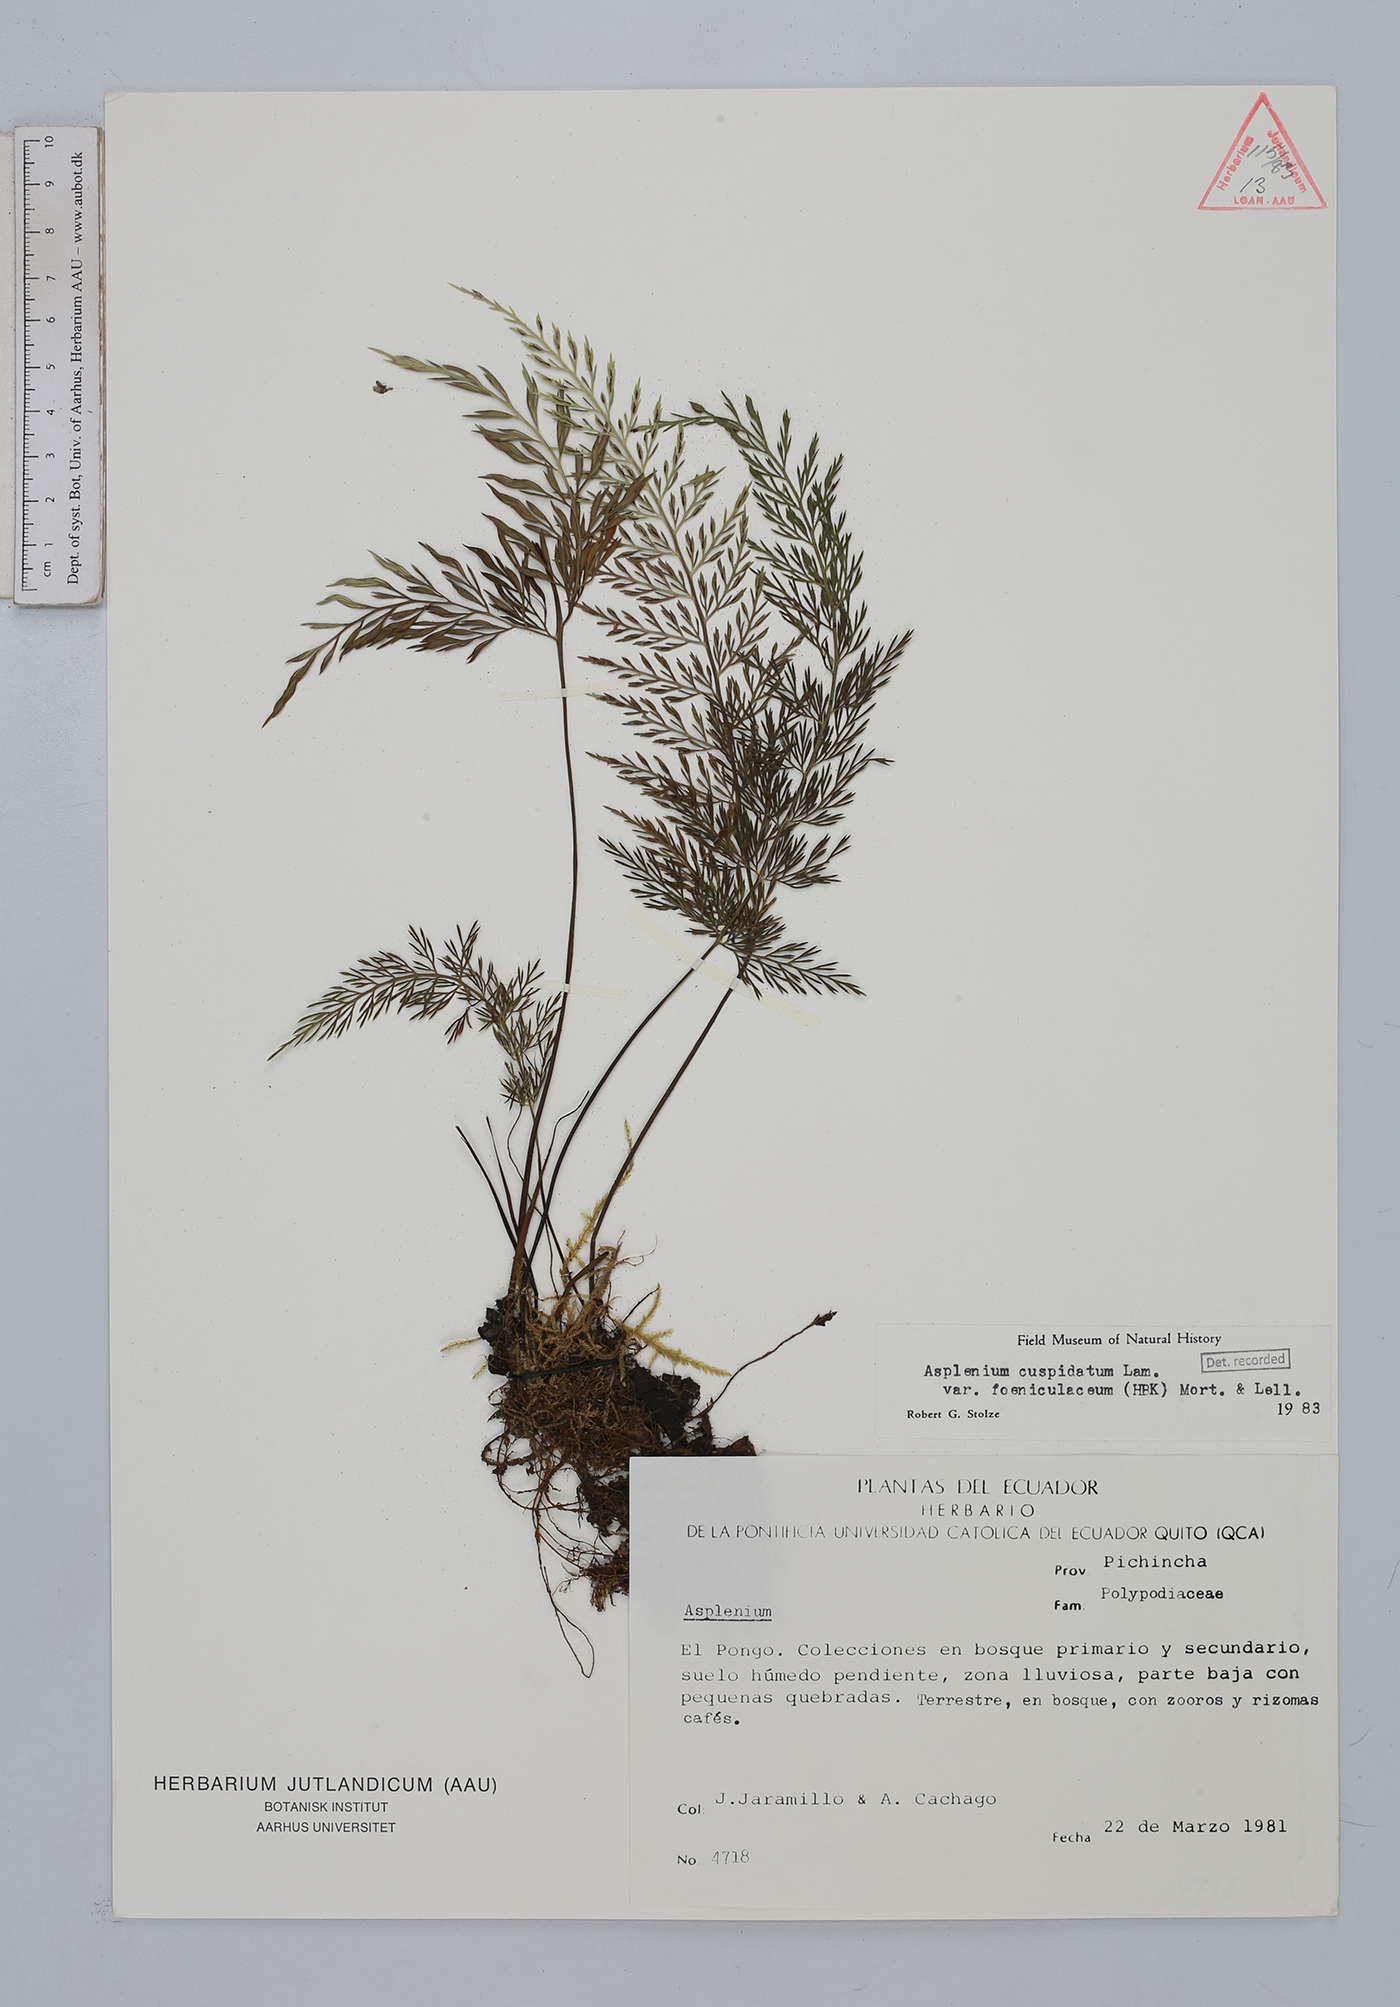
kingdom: Plantae
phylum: Tracheophyta
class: Polypodiopsida
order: Polypodiales
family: Aspleniaceae
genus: Asplenium
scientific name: Asplenium fragrans
